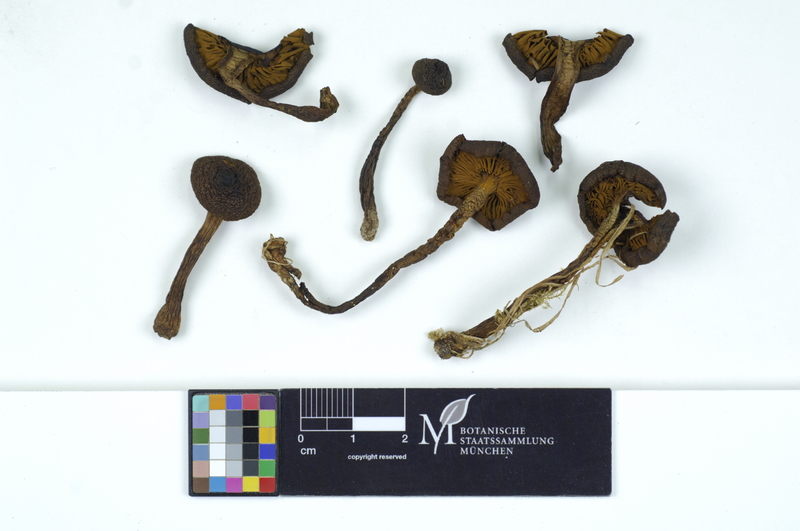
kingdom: Fungi
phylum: Basidiomycota
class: Agaricomycetes
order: Agaricales
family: Cortinariaceae
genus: Cortinarius
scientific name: Cortinarius cinnamomeus
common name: Cinnamon webcap
